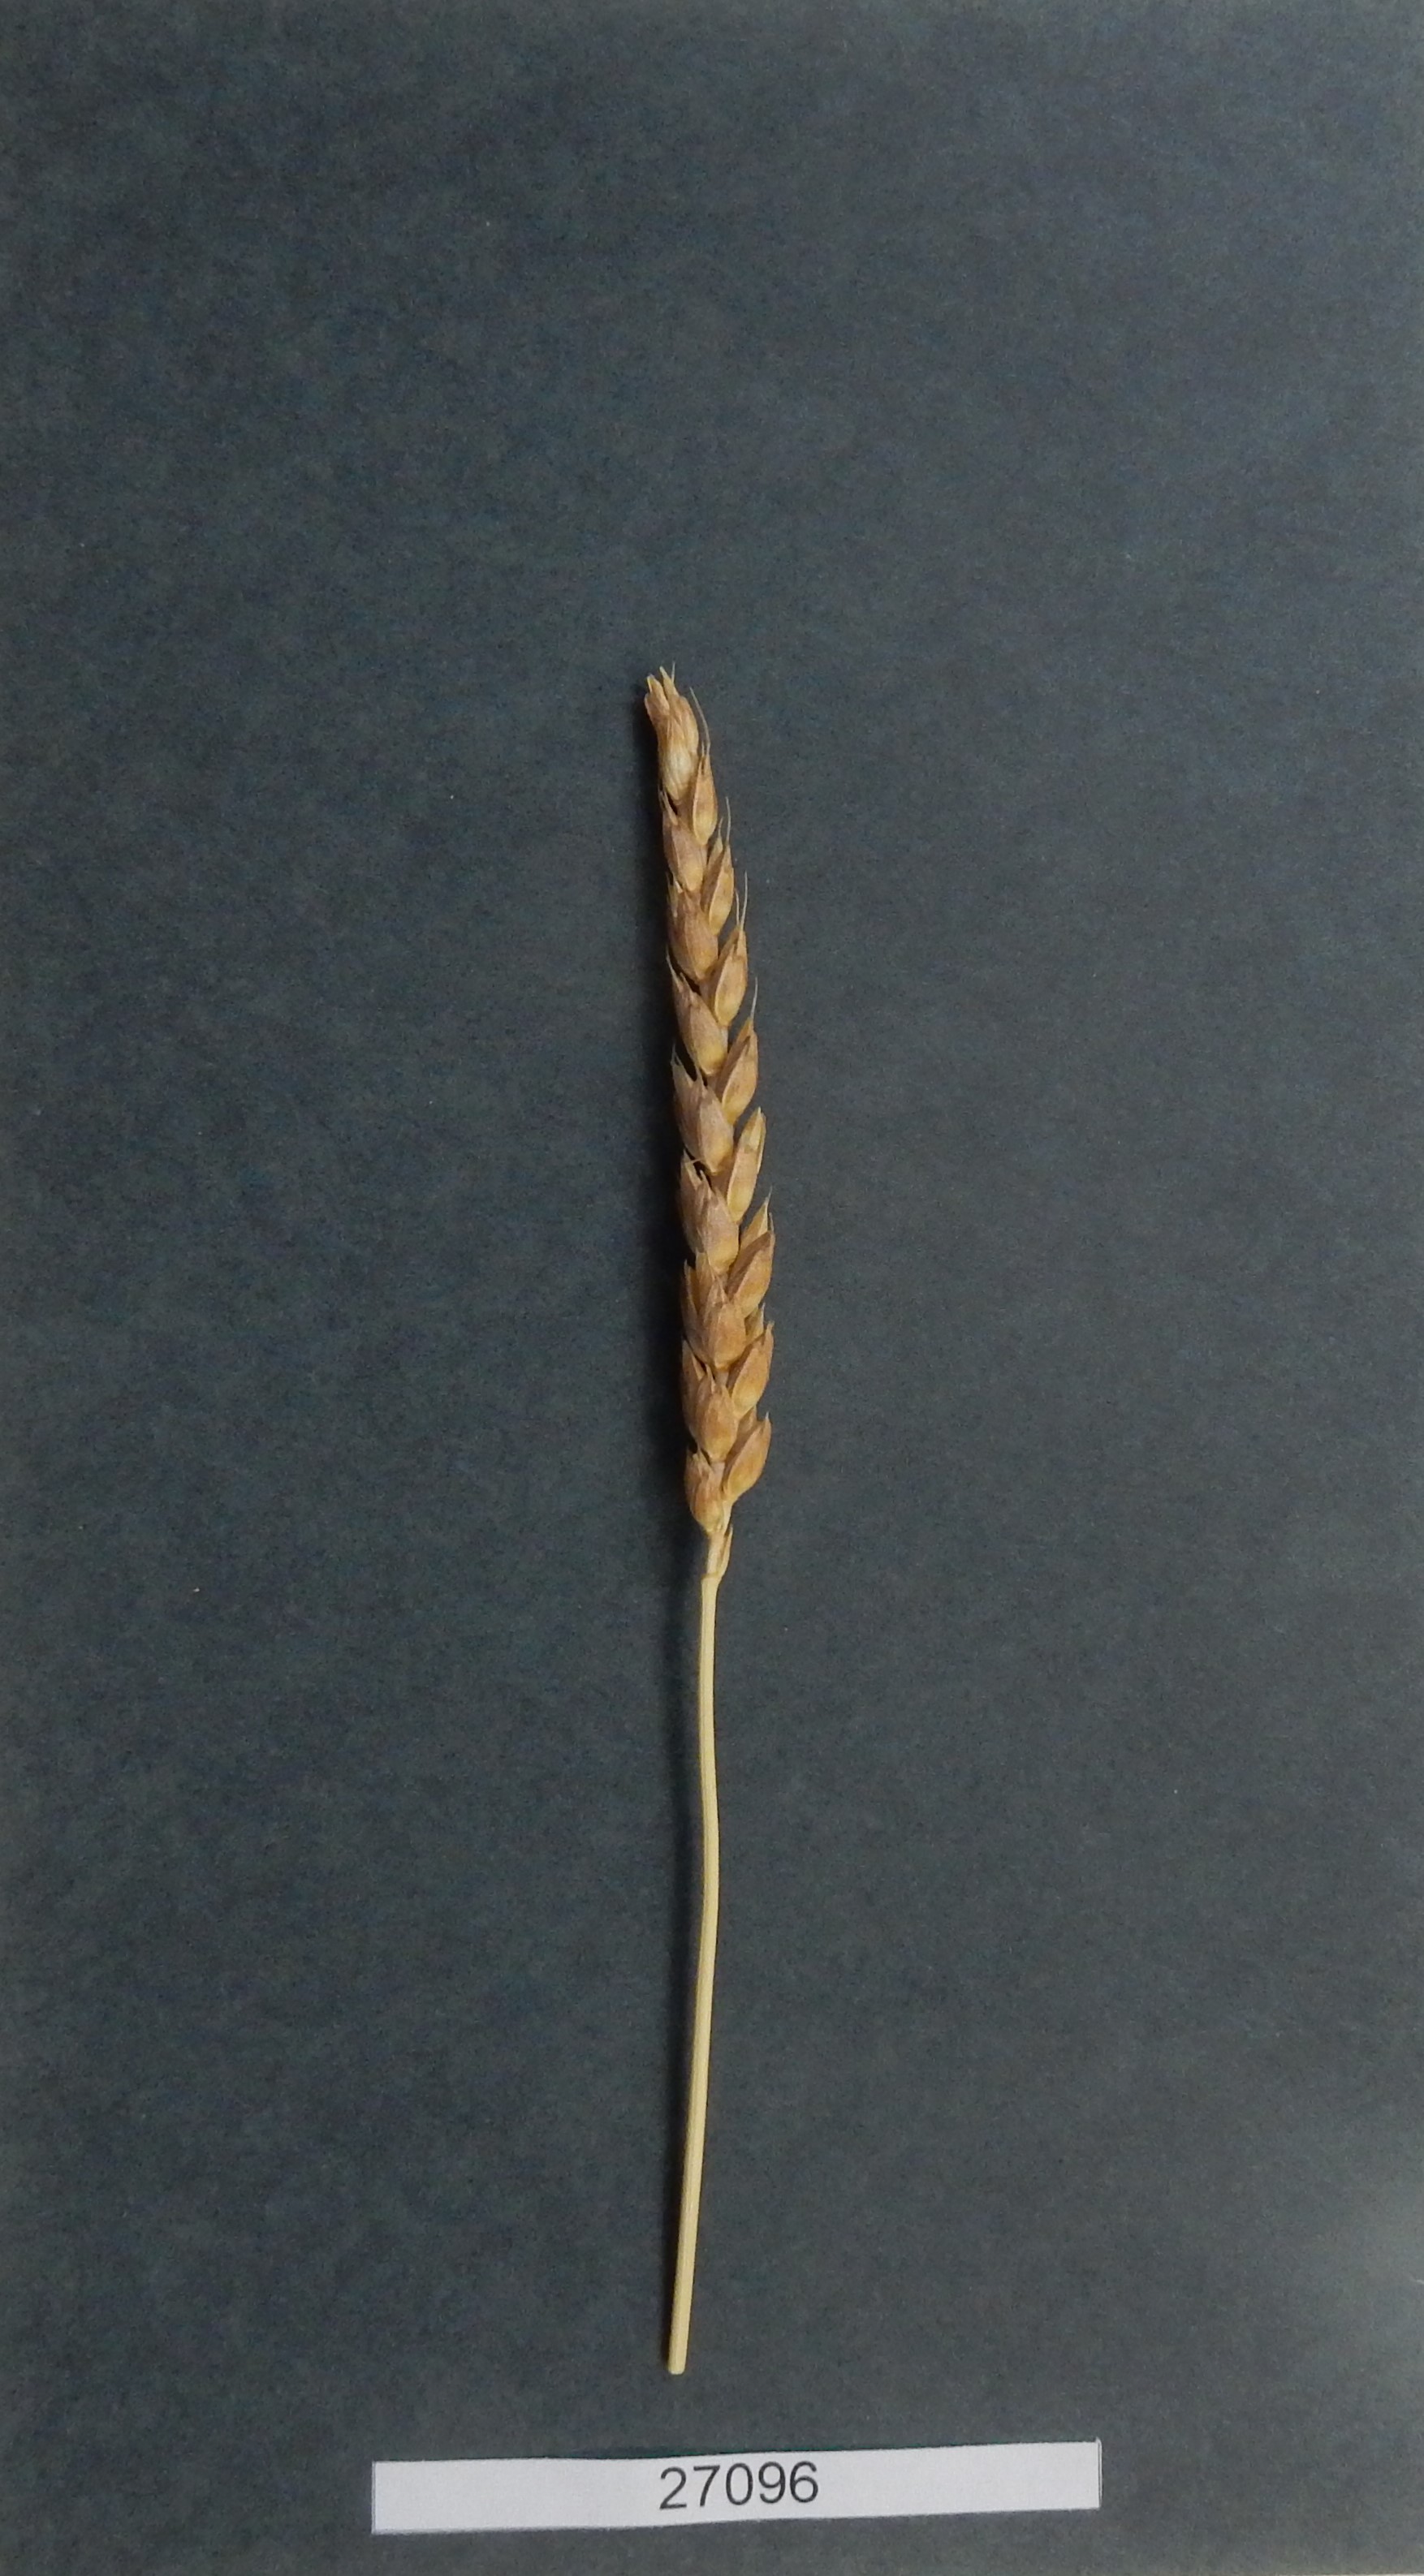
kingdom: Plantae
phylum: Tracheophyta
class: Liliopsida
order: Poales
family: Poaceae
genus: Triticum
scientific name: Triticum aestivum
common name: Common wheat
